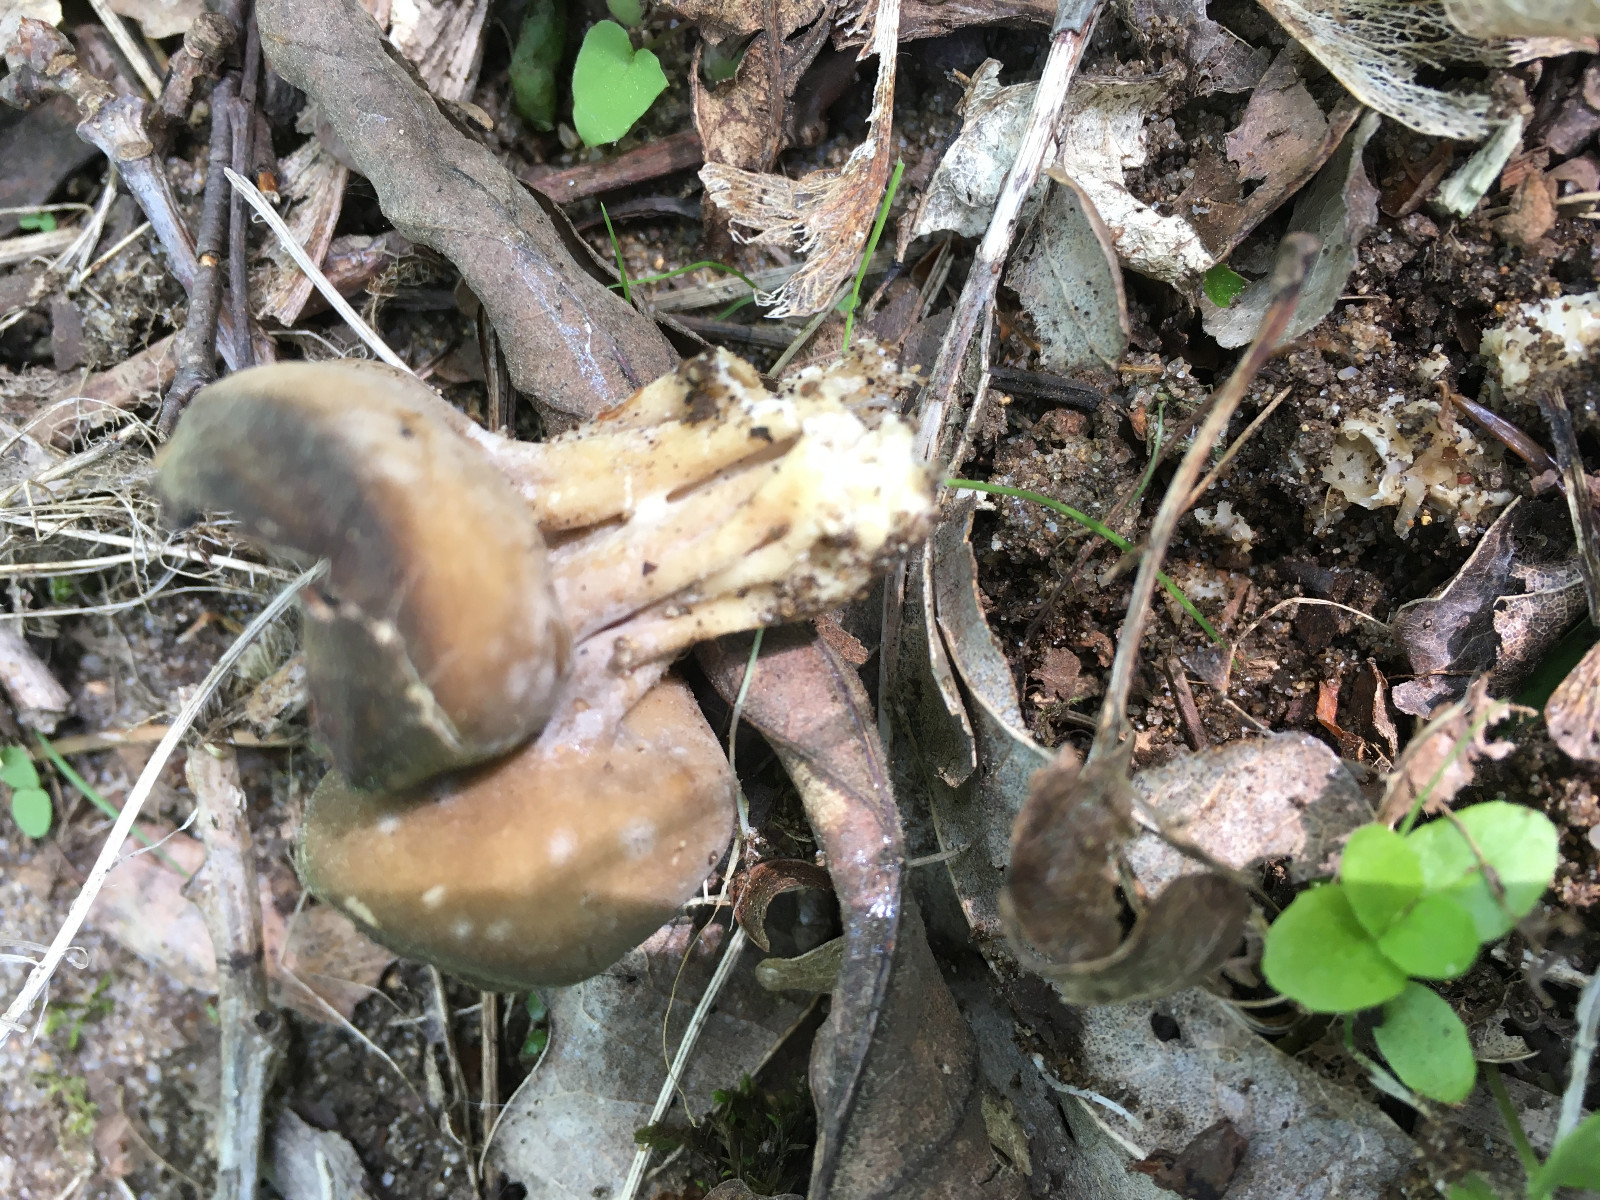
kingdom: Fungi
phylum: Ascomycota
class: Pezizomycetes
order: Pezizales
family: Helvellaceae
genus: Helvella
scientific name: Helvella
